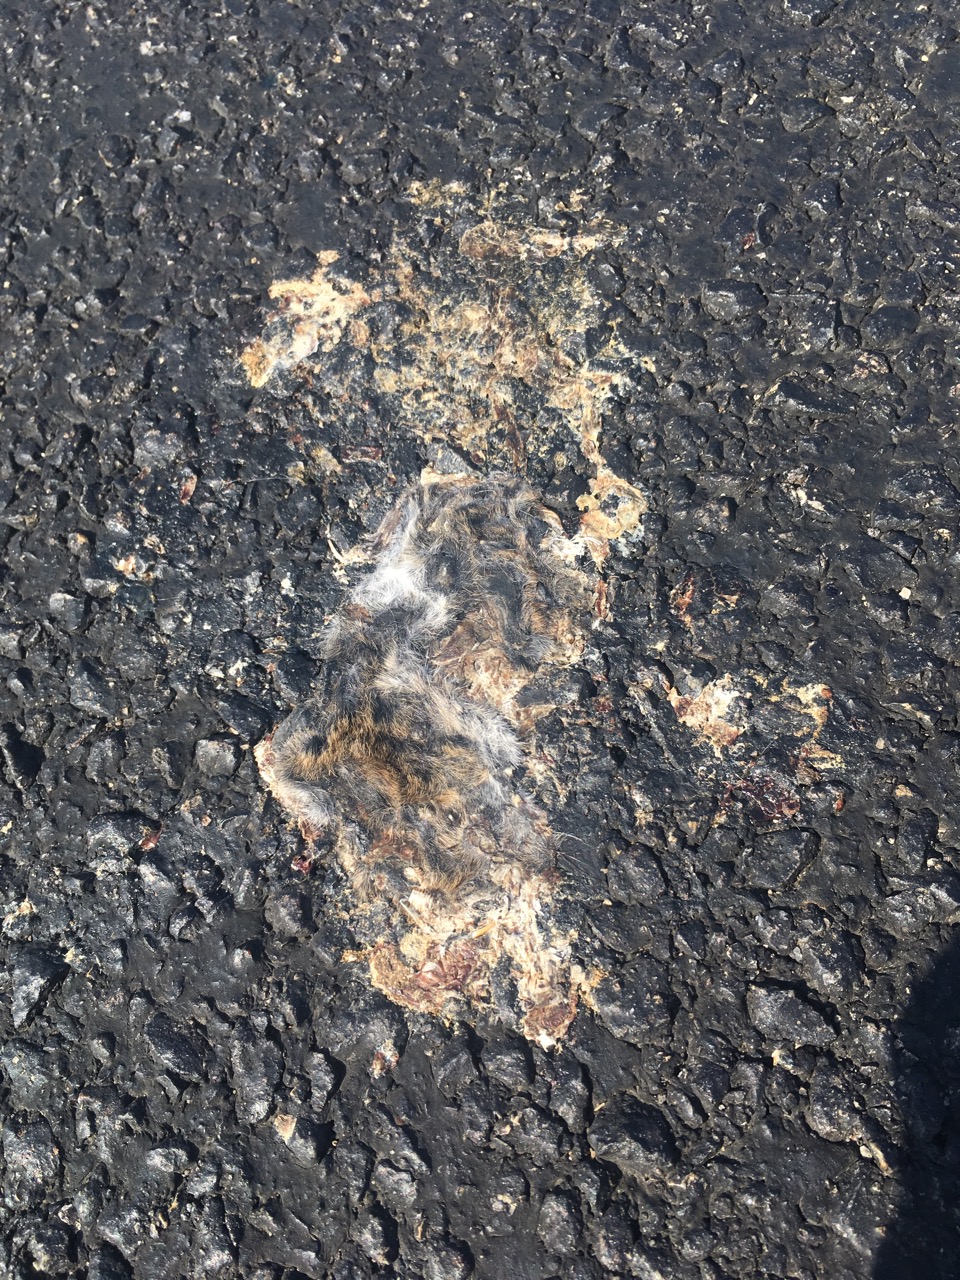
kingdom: Animalia
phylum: Chordata
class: Mammalia
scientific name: Mammalia
